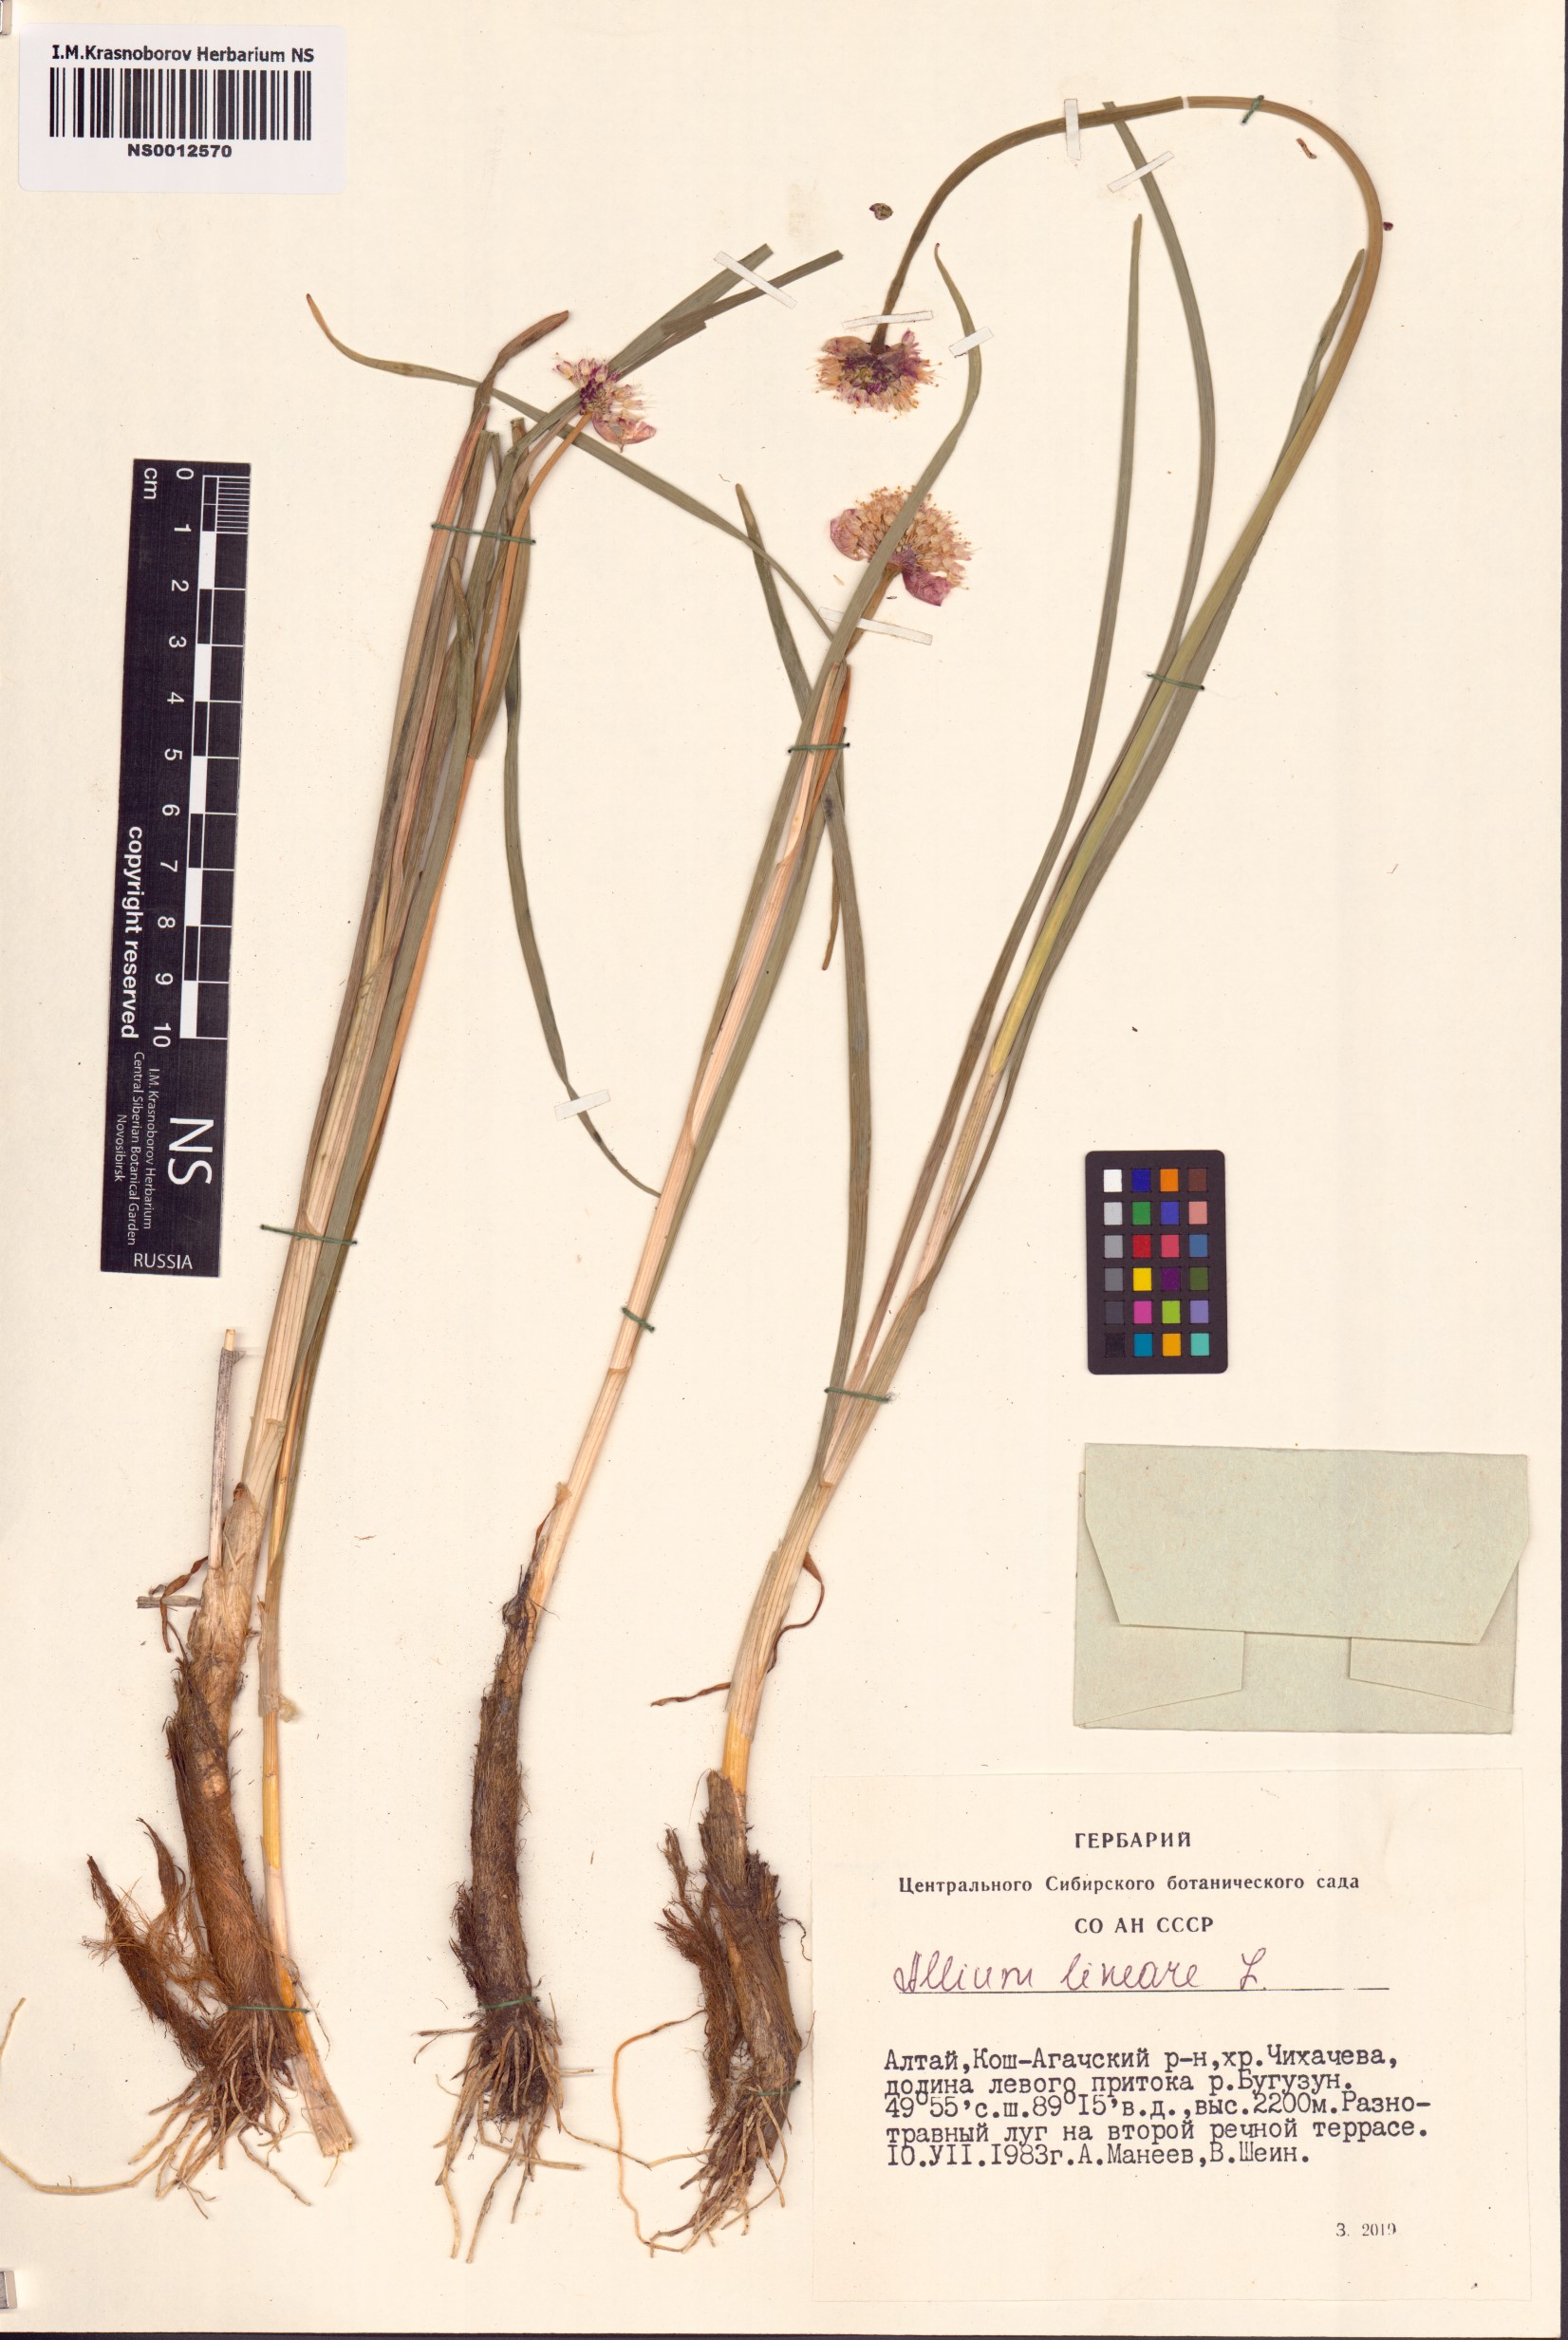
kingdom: Plantae
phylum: Tracheophyta
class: Liliopsida
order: Asparagales
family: Amaryllidaceae
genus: Allium
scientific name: Allium lineare
